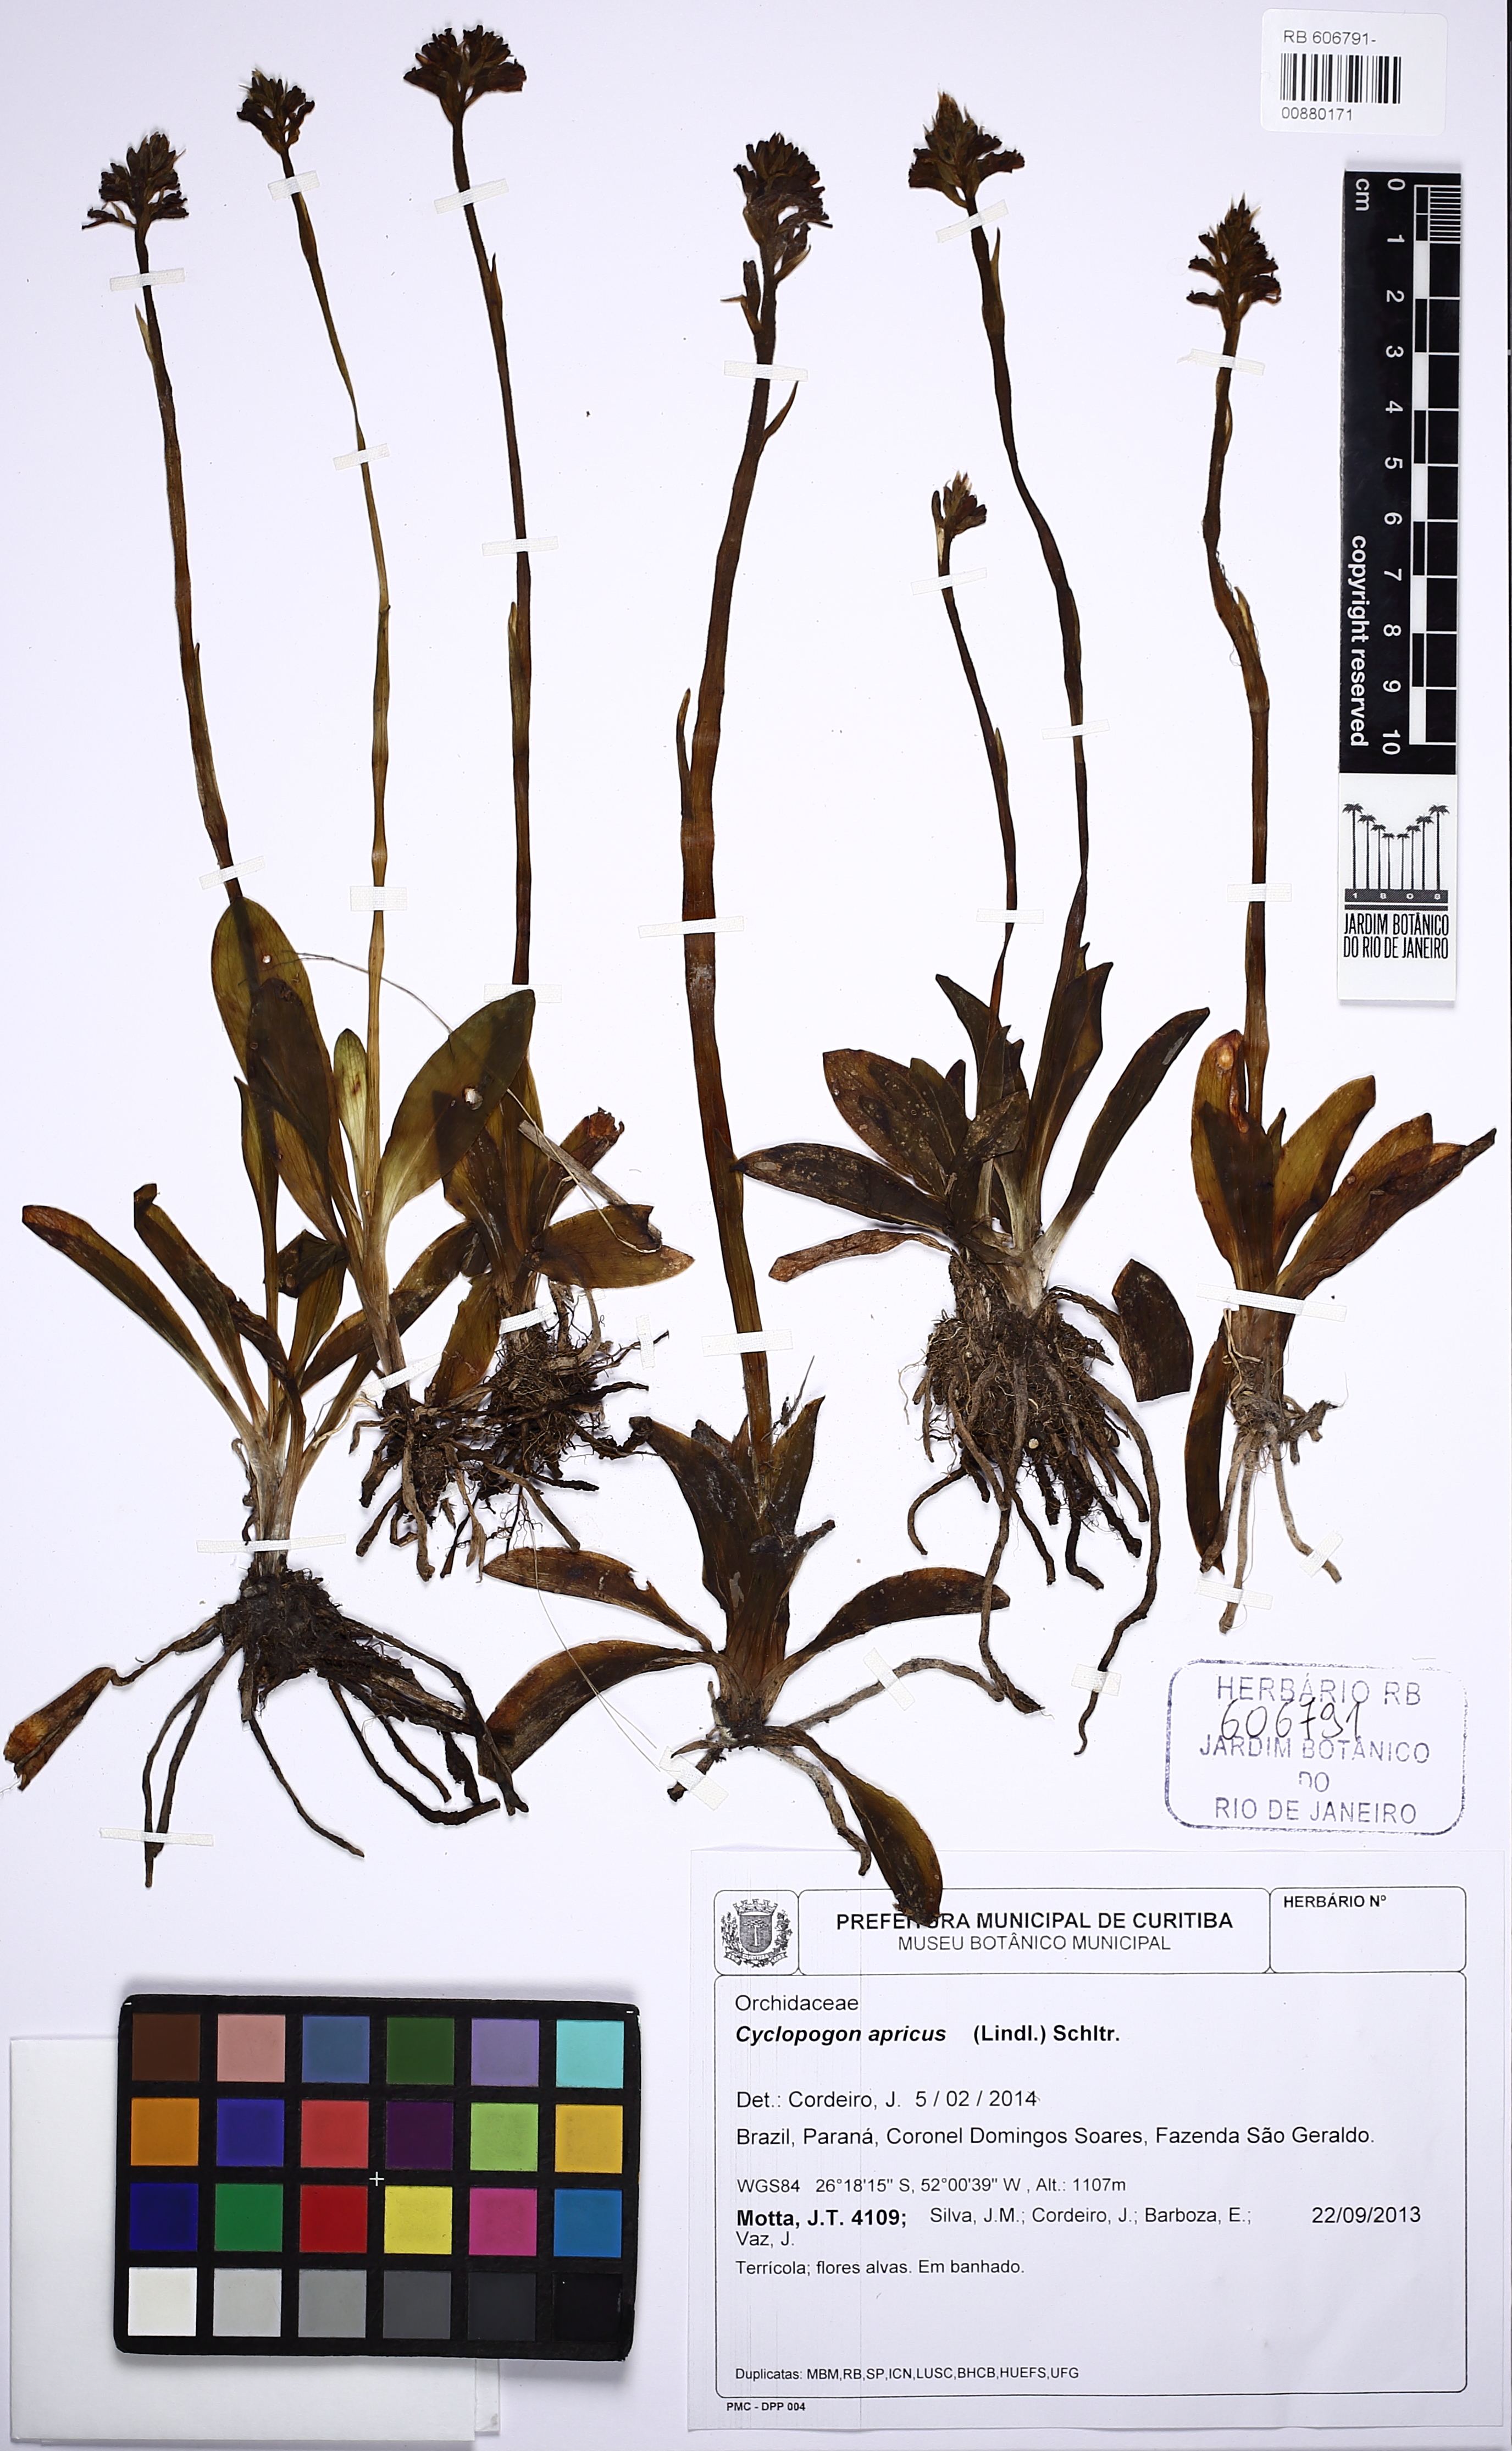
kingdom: Plantae
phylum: Tracheophyta
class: Liliopsida
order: Asparagales
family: Orchidaceae
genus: Cyclopogon
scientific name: Cyclopogon apricus
